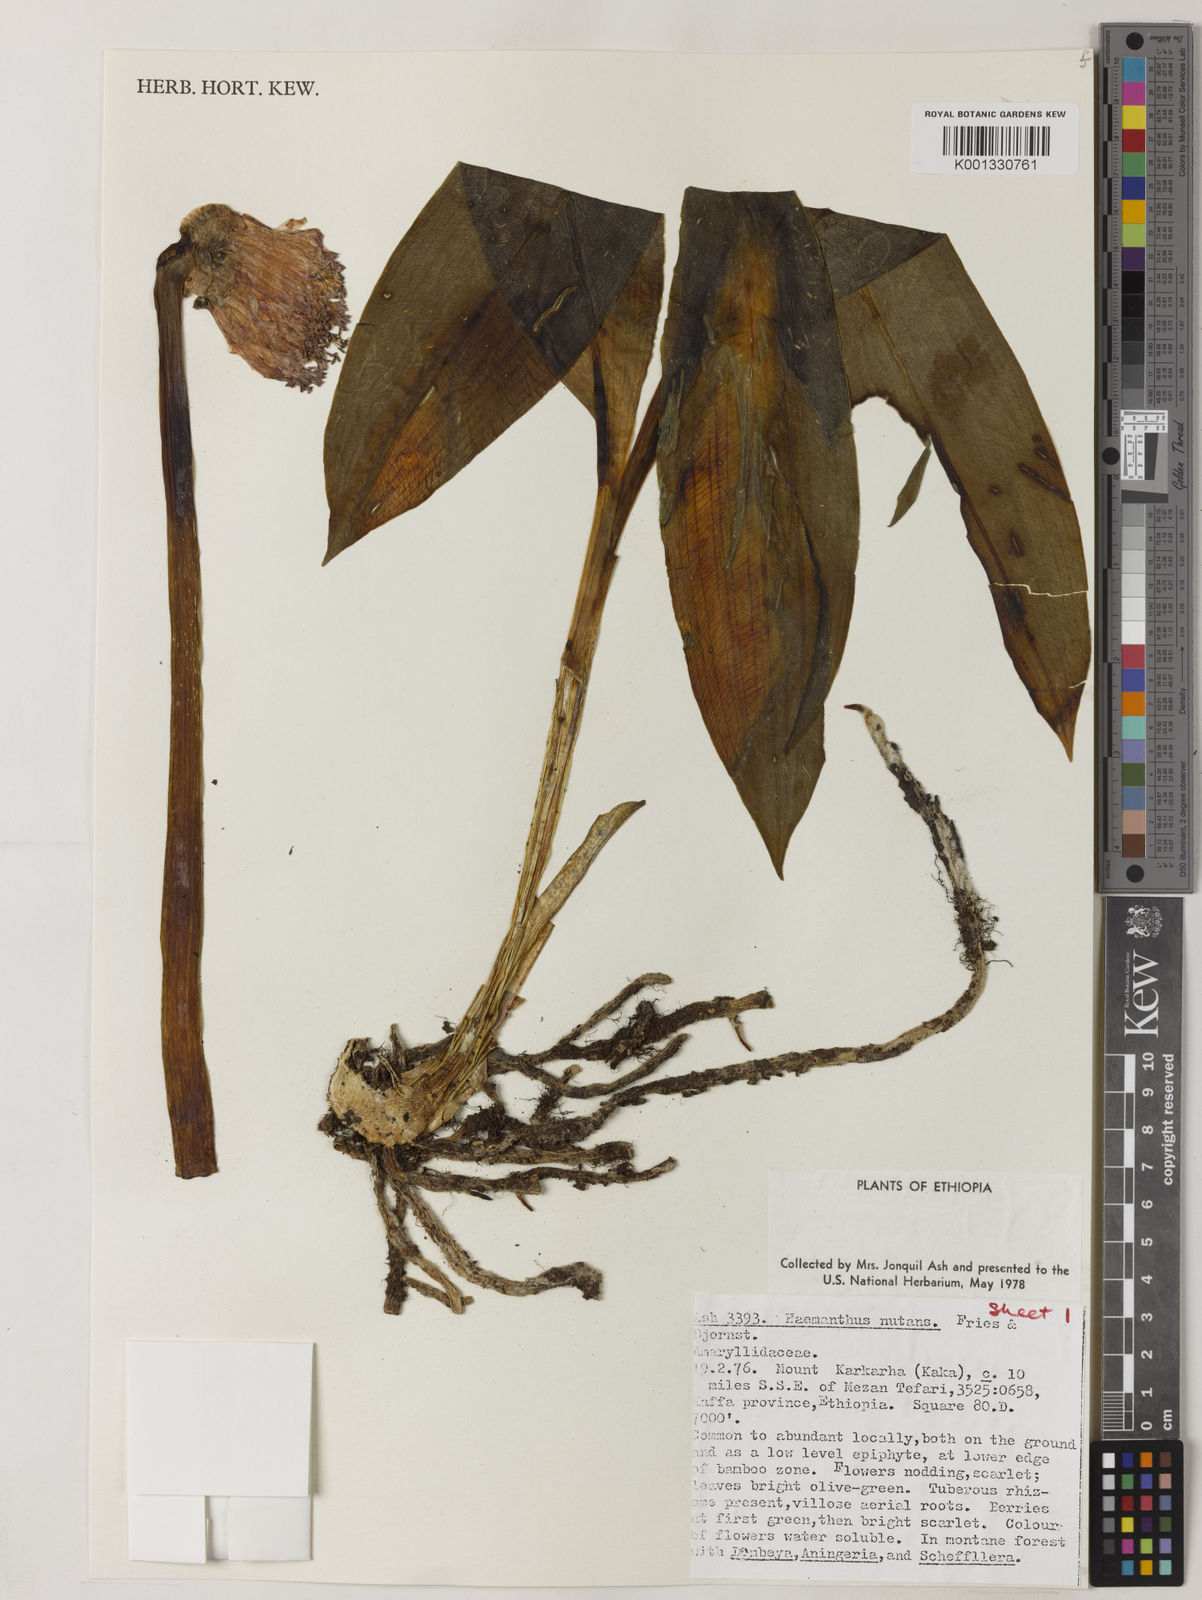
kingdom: Plantae
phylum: Tracheophyta
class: Liliopsida
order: Asparagales
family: Amaryllidaceae
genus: Scadoxus
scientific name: Scadoxus nutans
